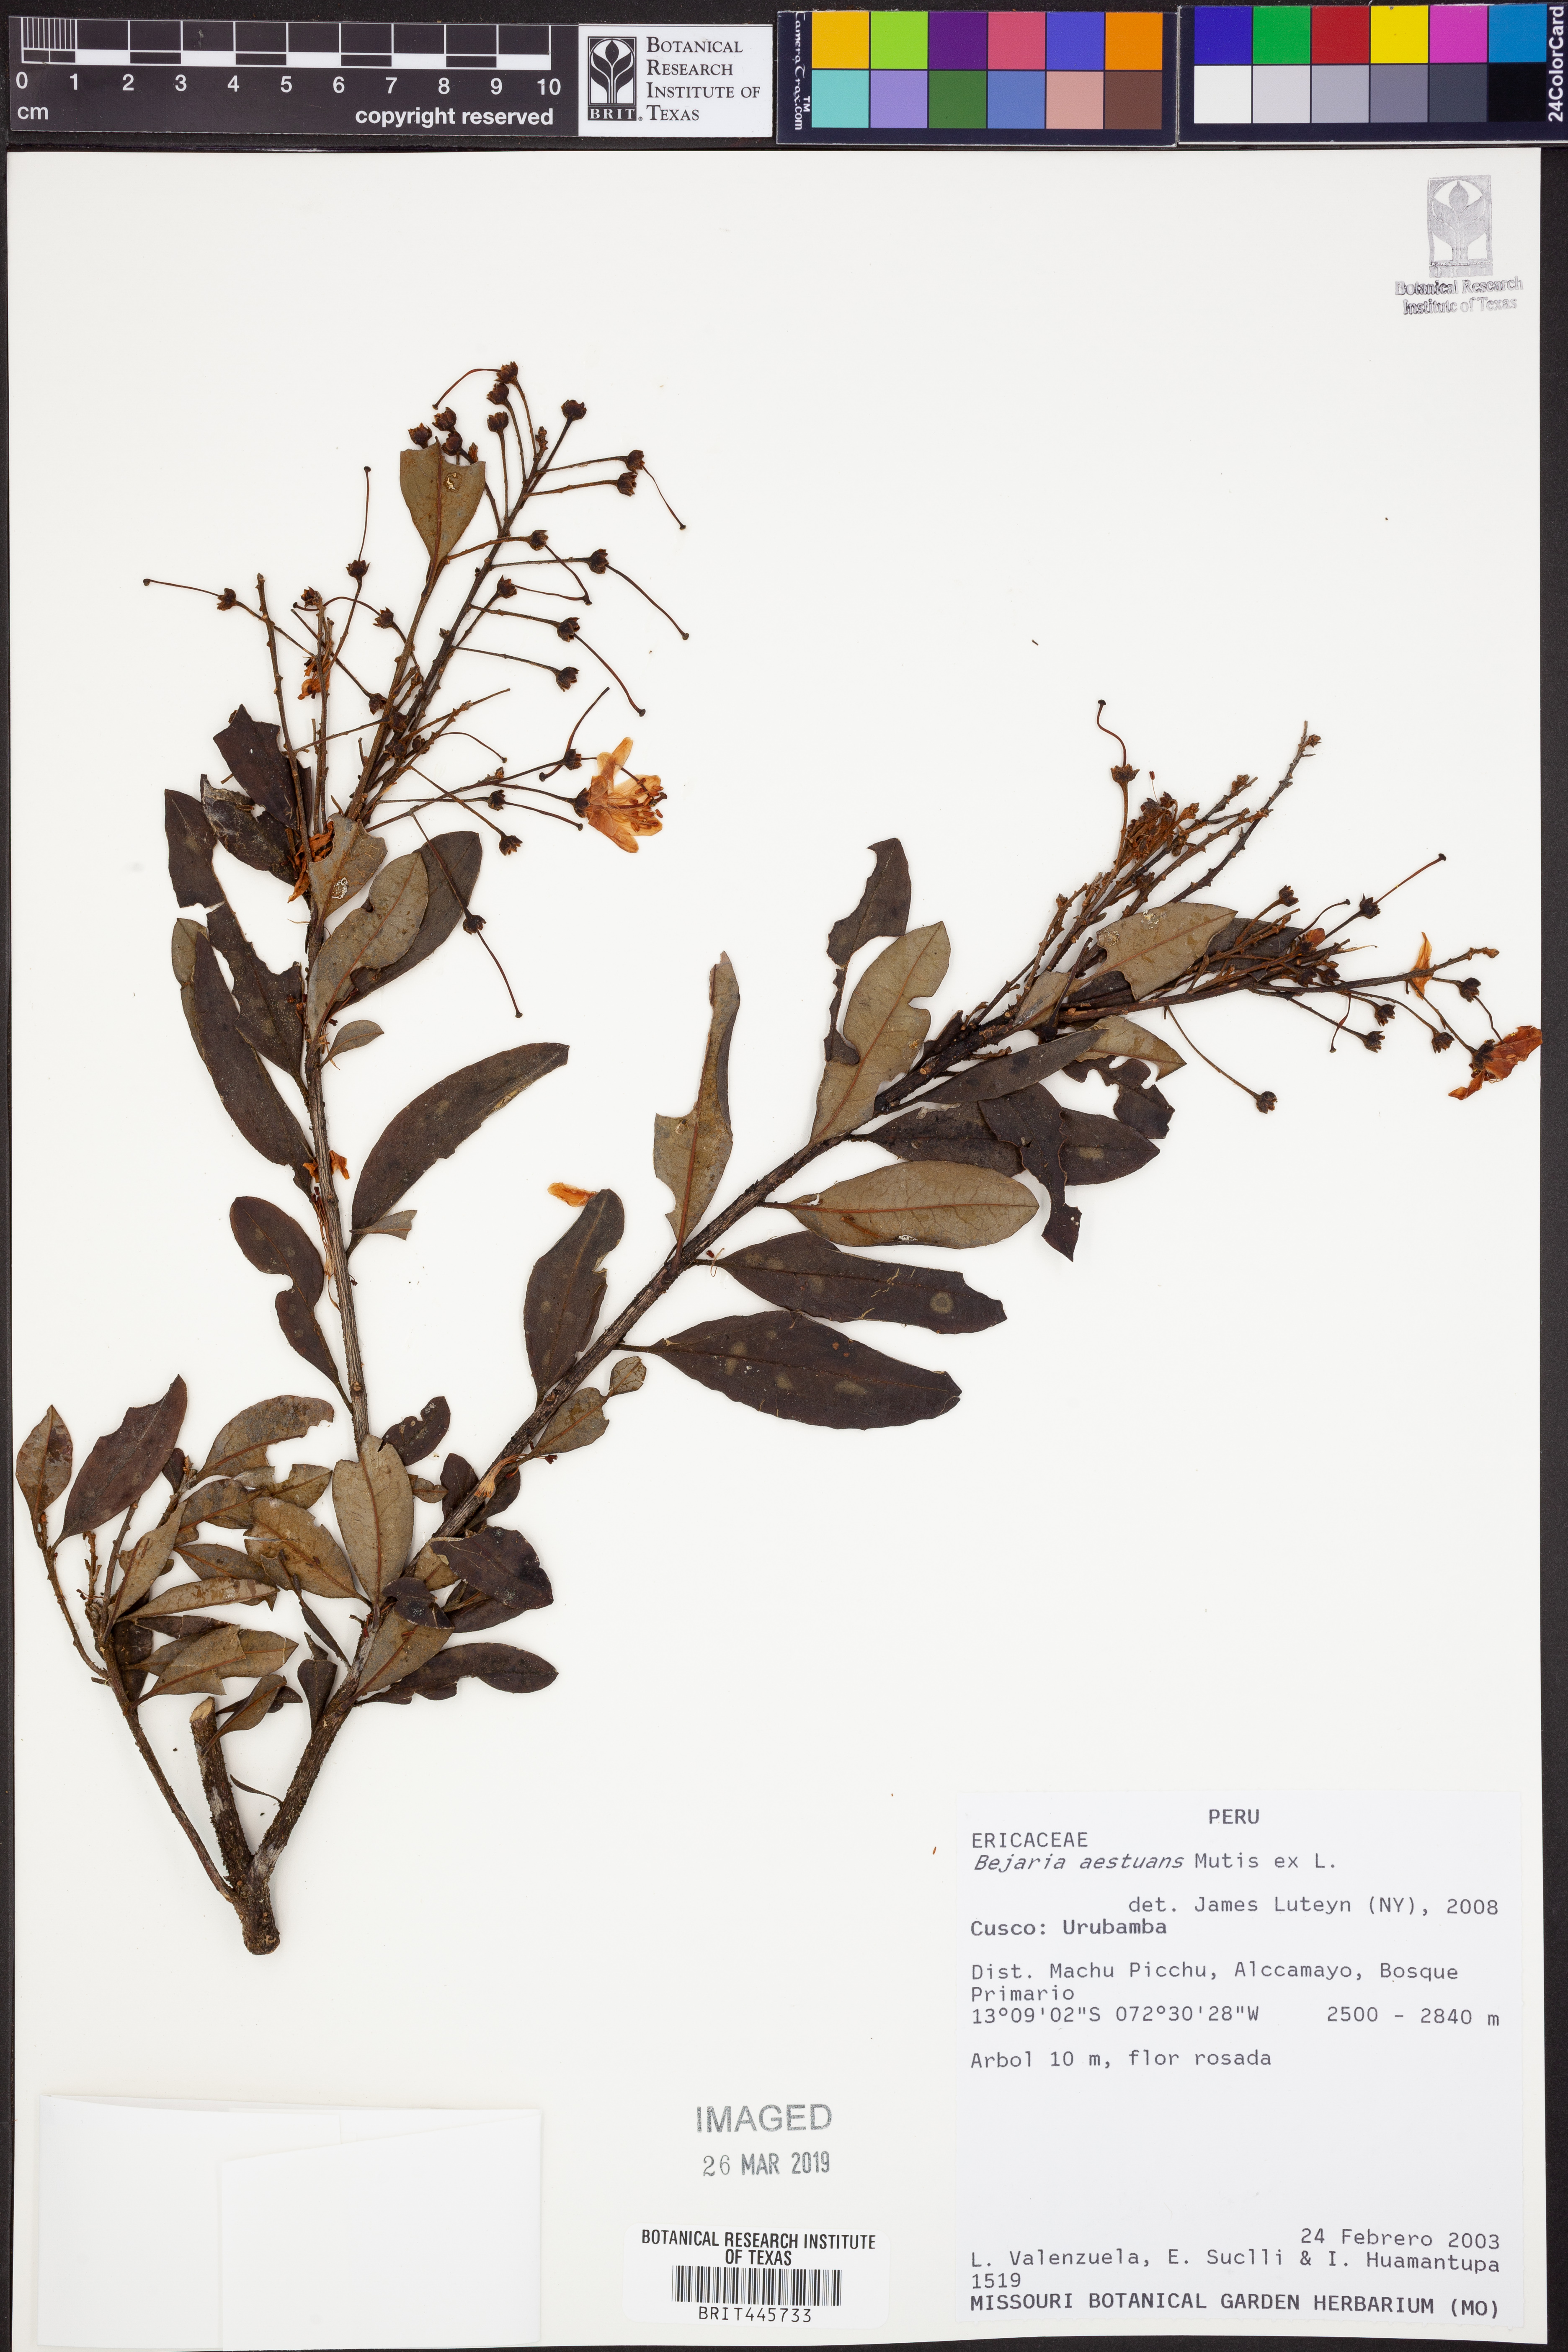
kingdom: Plantae
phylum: Tracheophyta
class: Magnoliopsida
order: Ericales
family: Ericaceae
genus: Bejaria
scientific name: Bejaria aestuans
